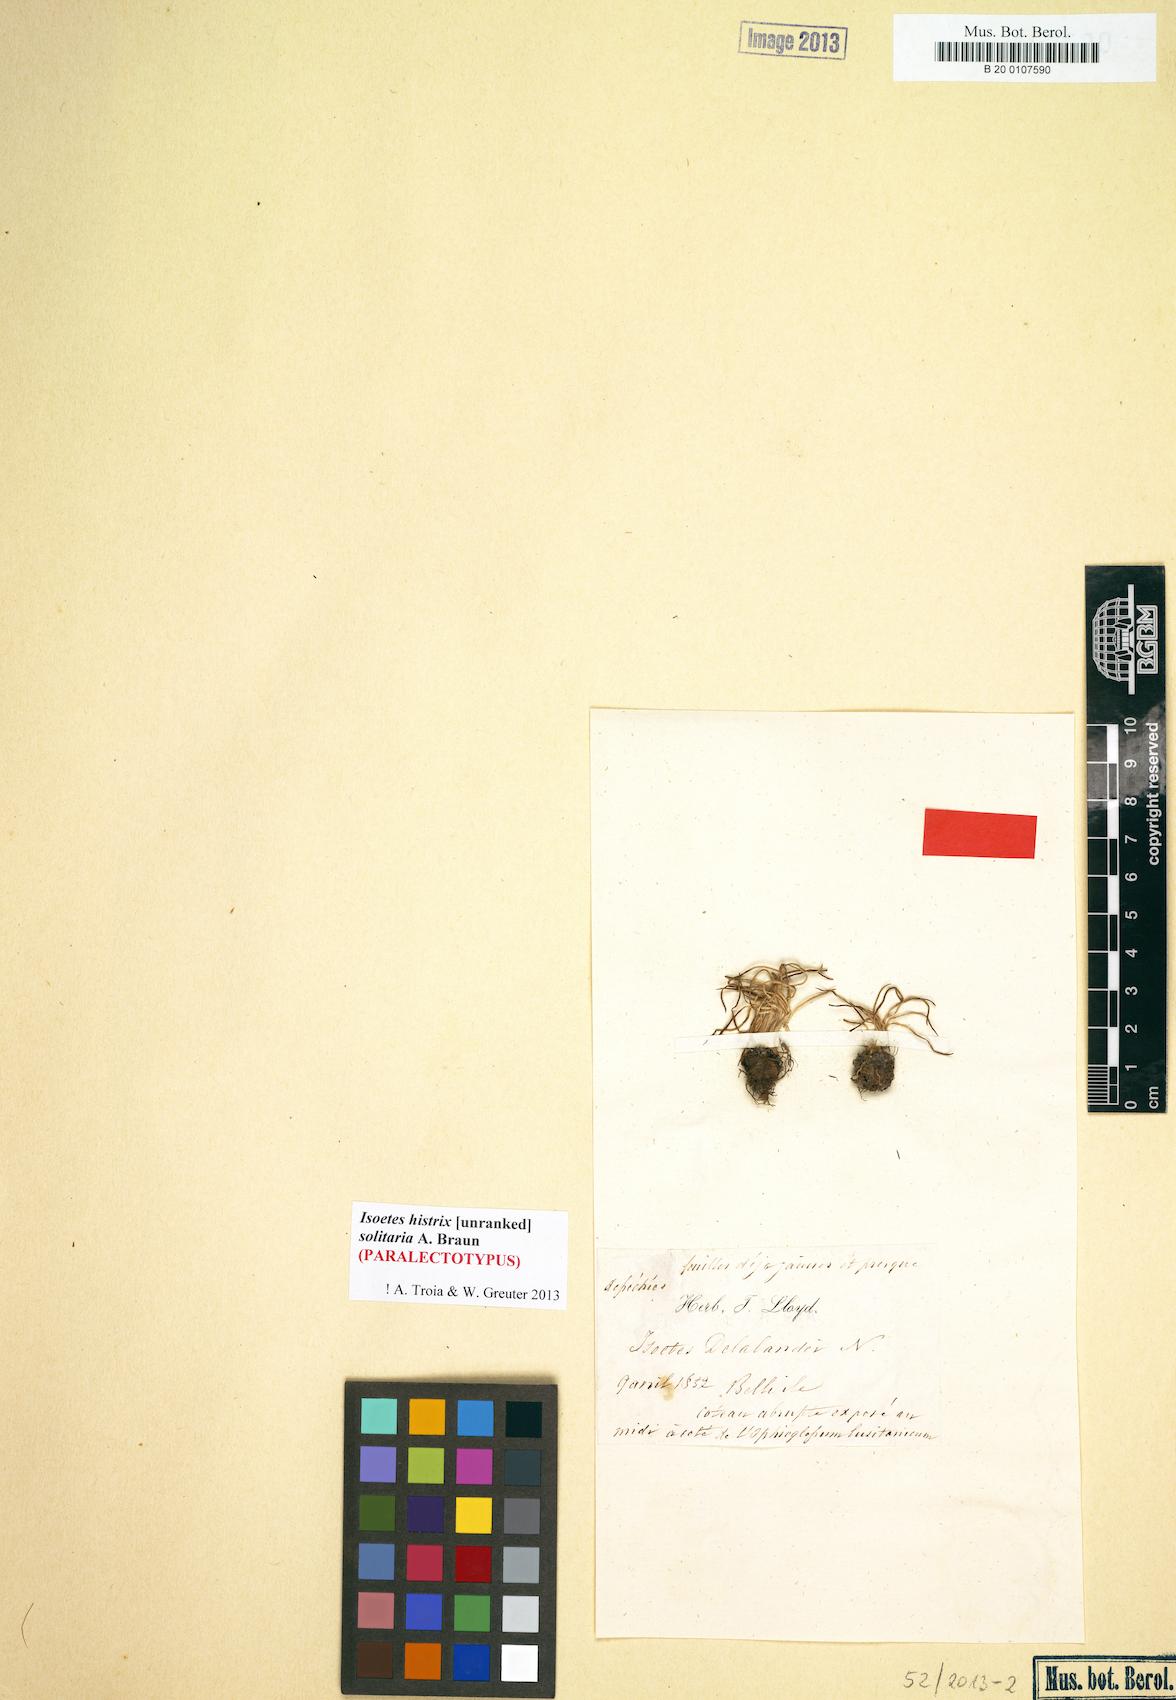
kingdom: Plantae
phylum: Tracheophyta
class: Lycopodiopsida
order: Isoetales
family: Isoetaceae
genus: Isoetes
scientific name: Isoetes histrix
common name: Land quillwort
